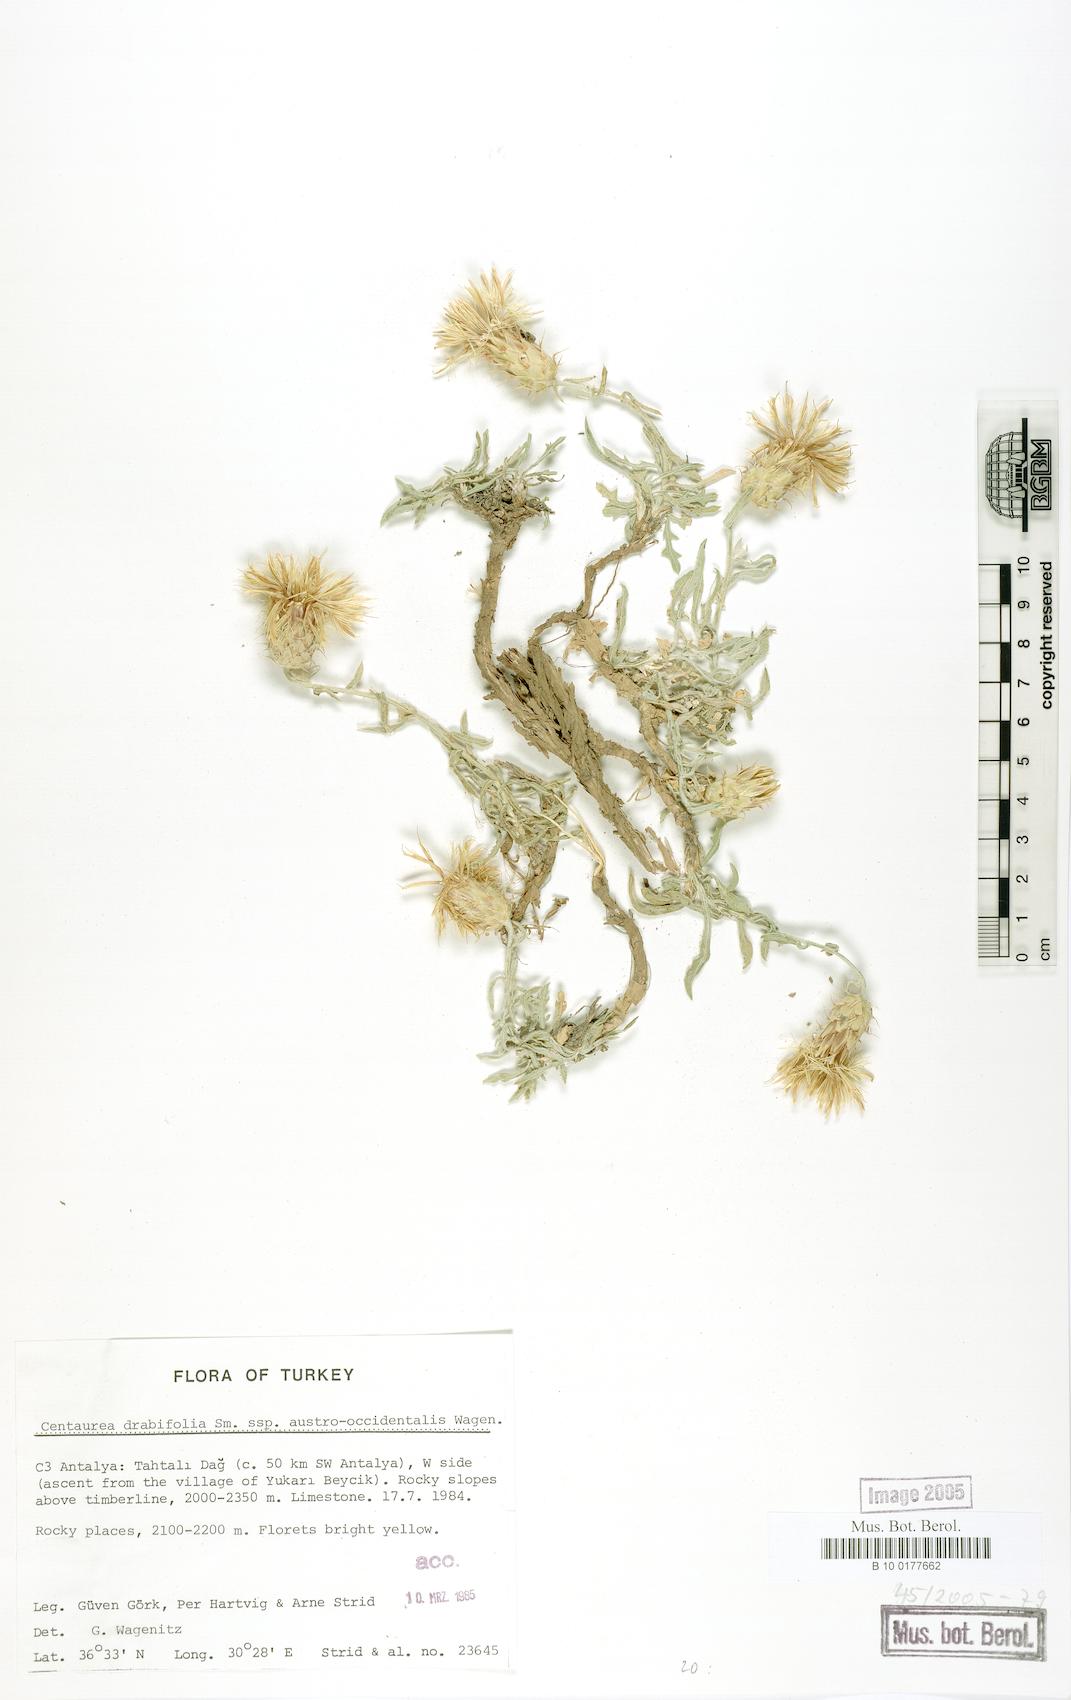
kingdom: Plantae
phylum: Tracheophyta
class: Magnoliopsida
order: Asterales
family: Asteraceae
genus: Centaurea
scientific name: Centaurea drabifolia
